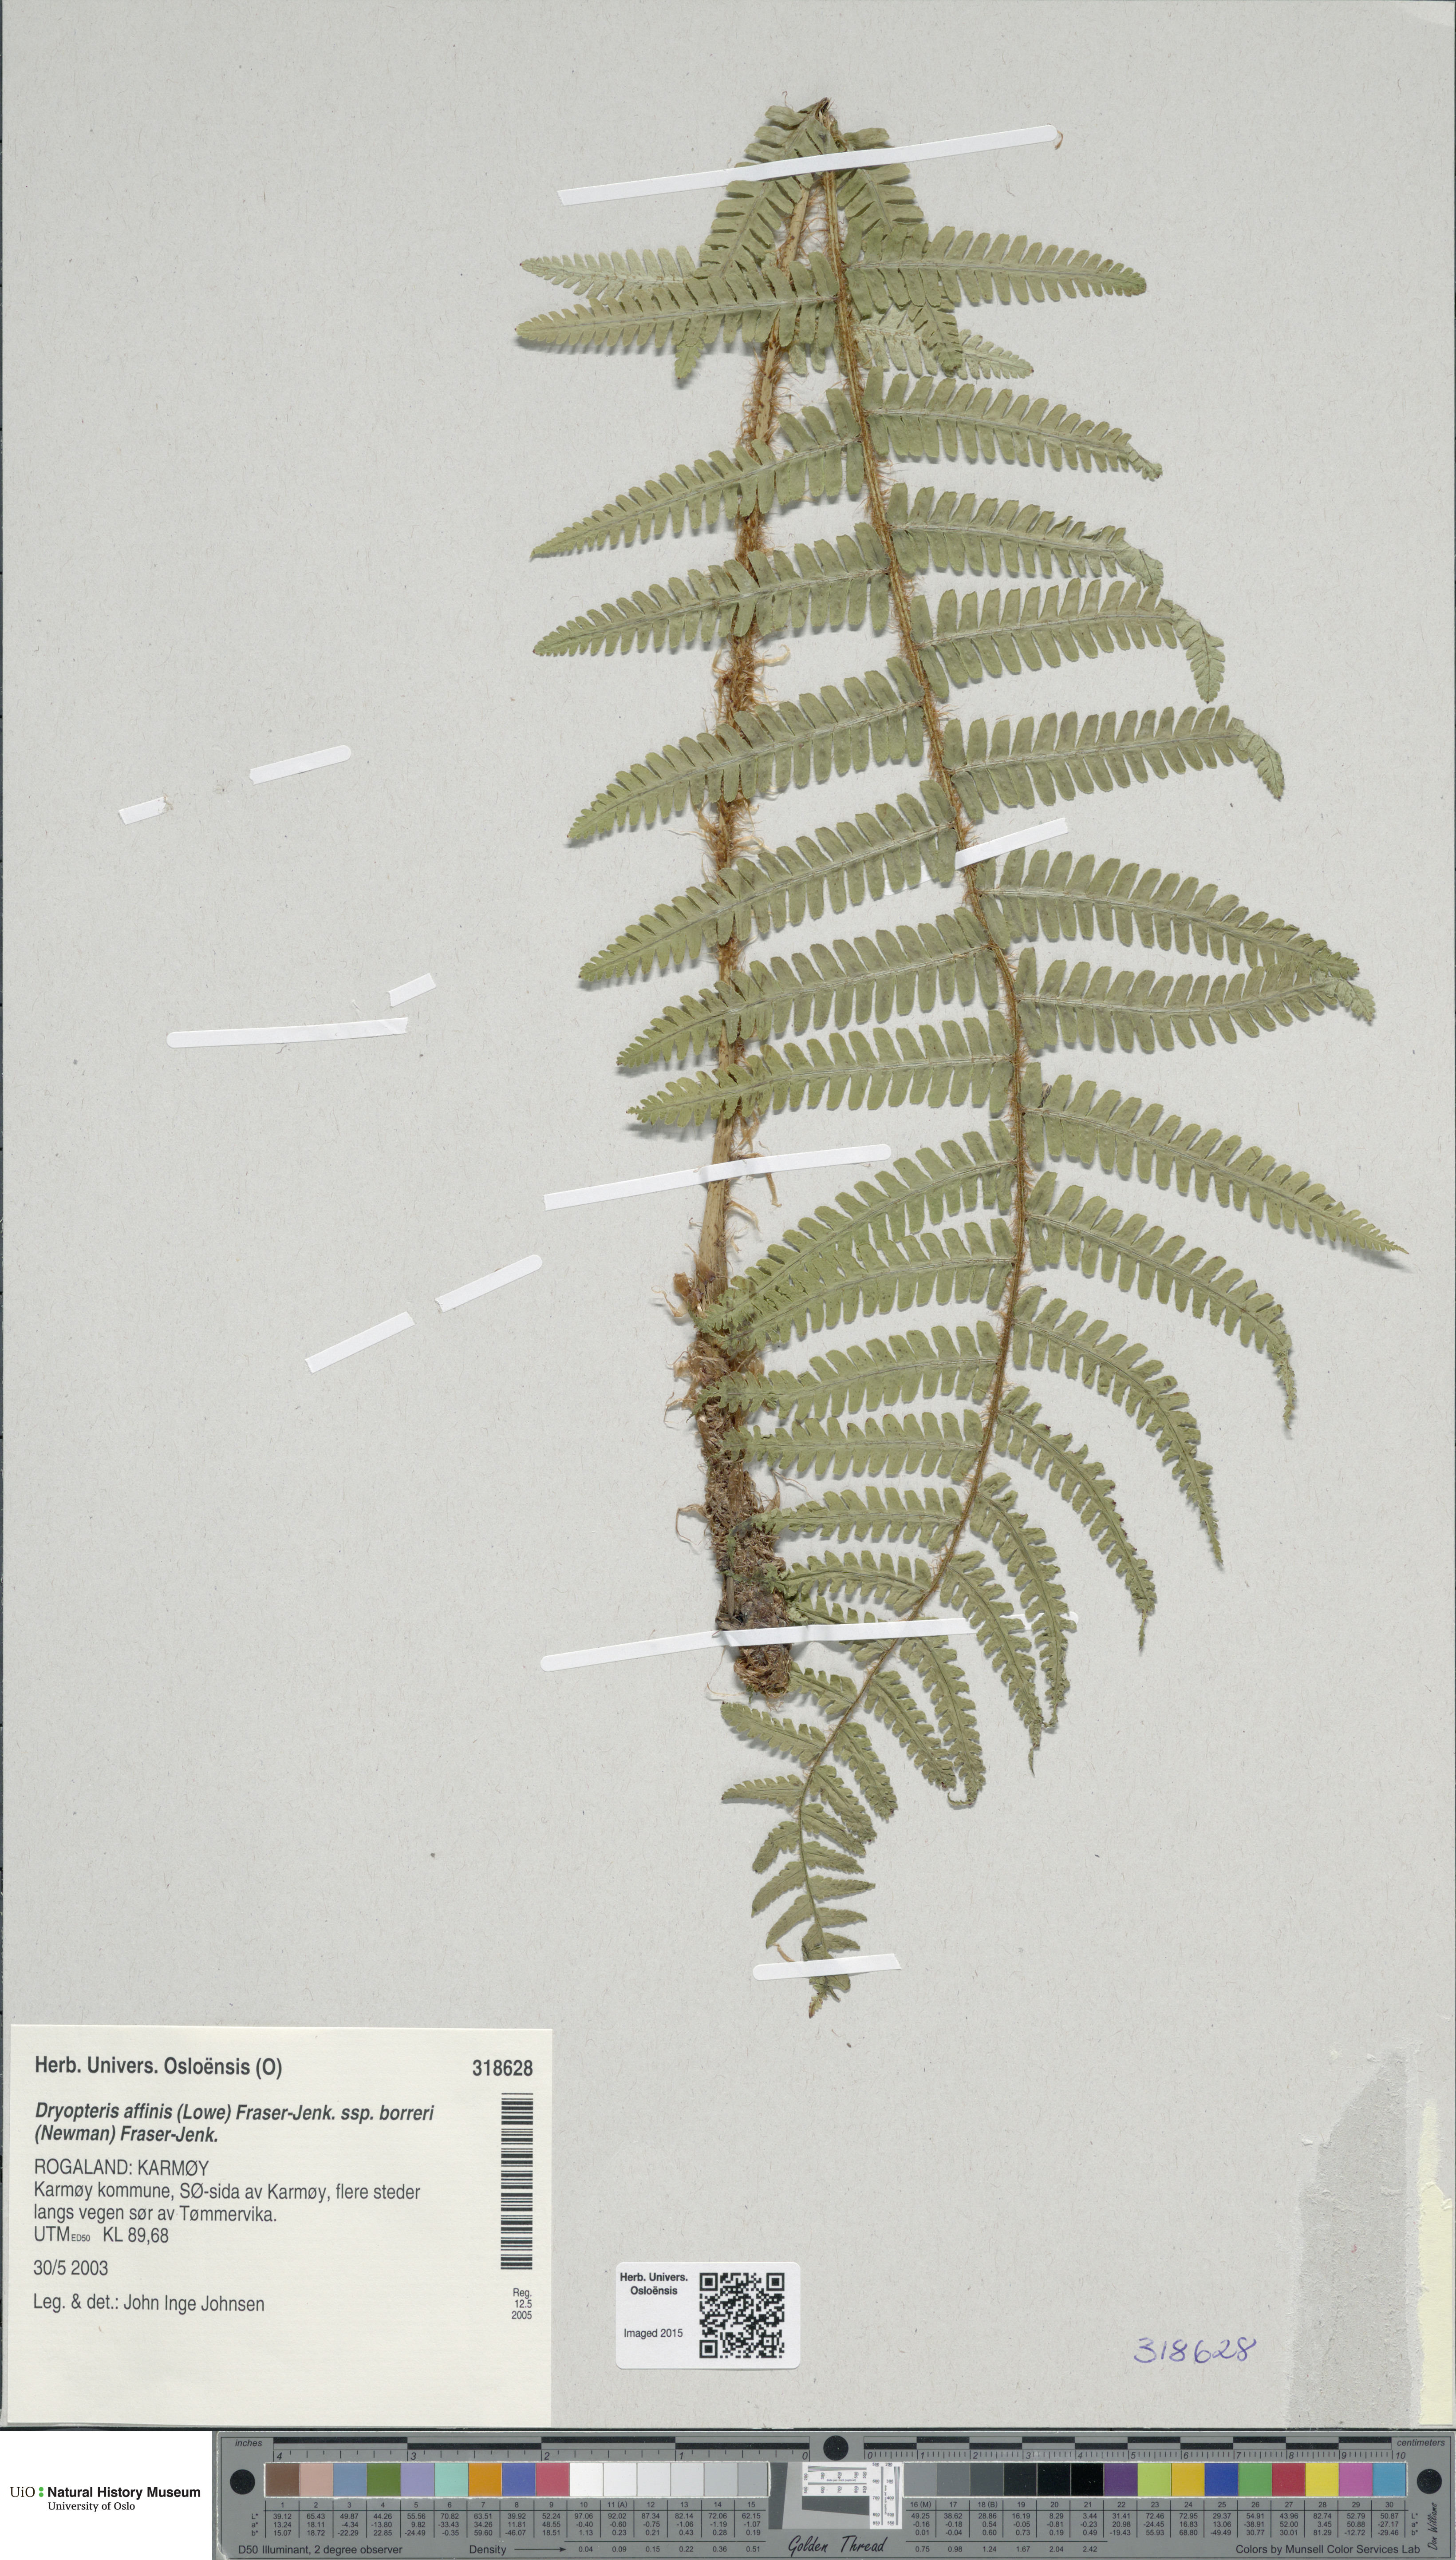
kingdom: Plantae
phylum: Tracheophyta
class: Polypodiopsida
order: Polypodiales
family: Dryopteridaceae
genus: Dryopteris
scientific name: Dryopteris borreri
